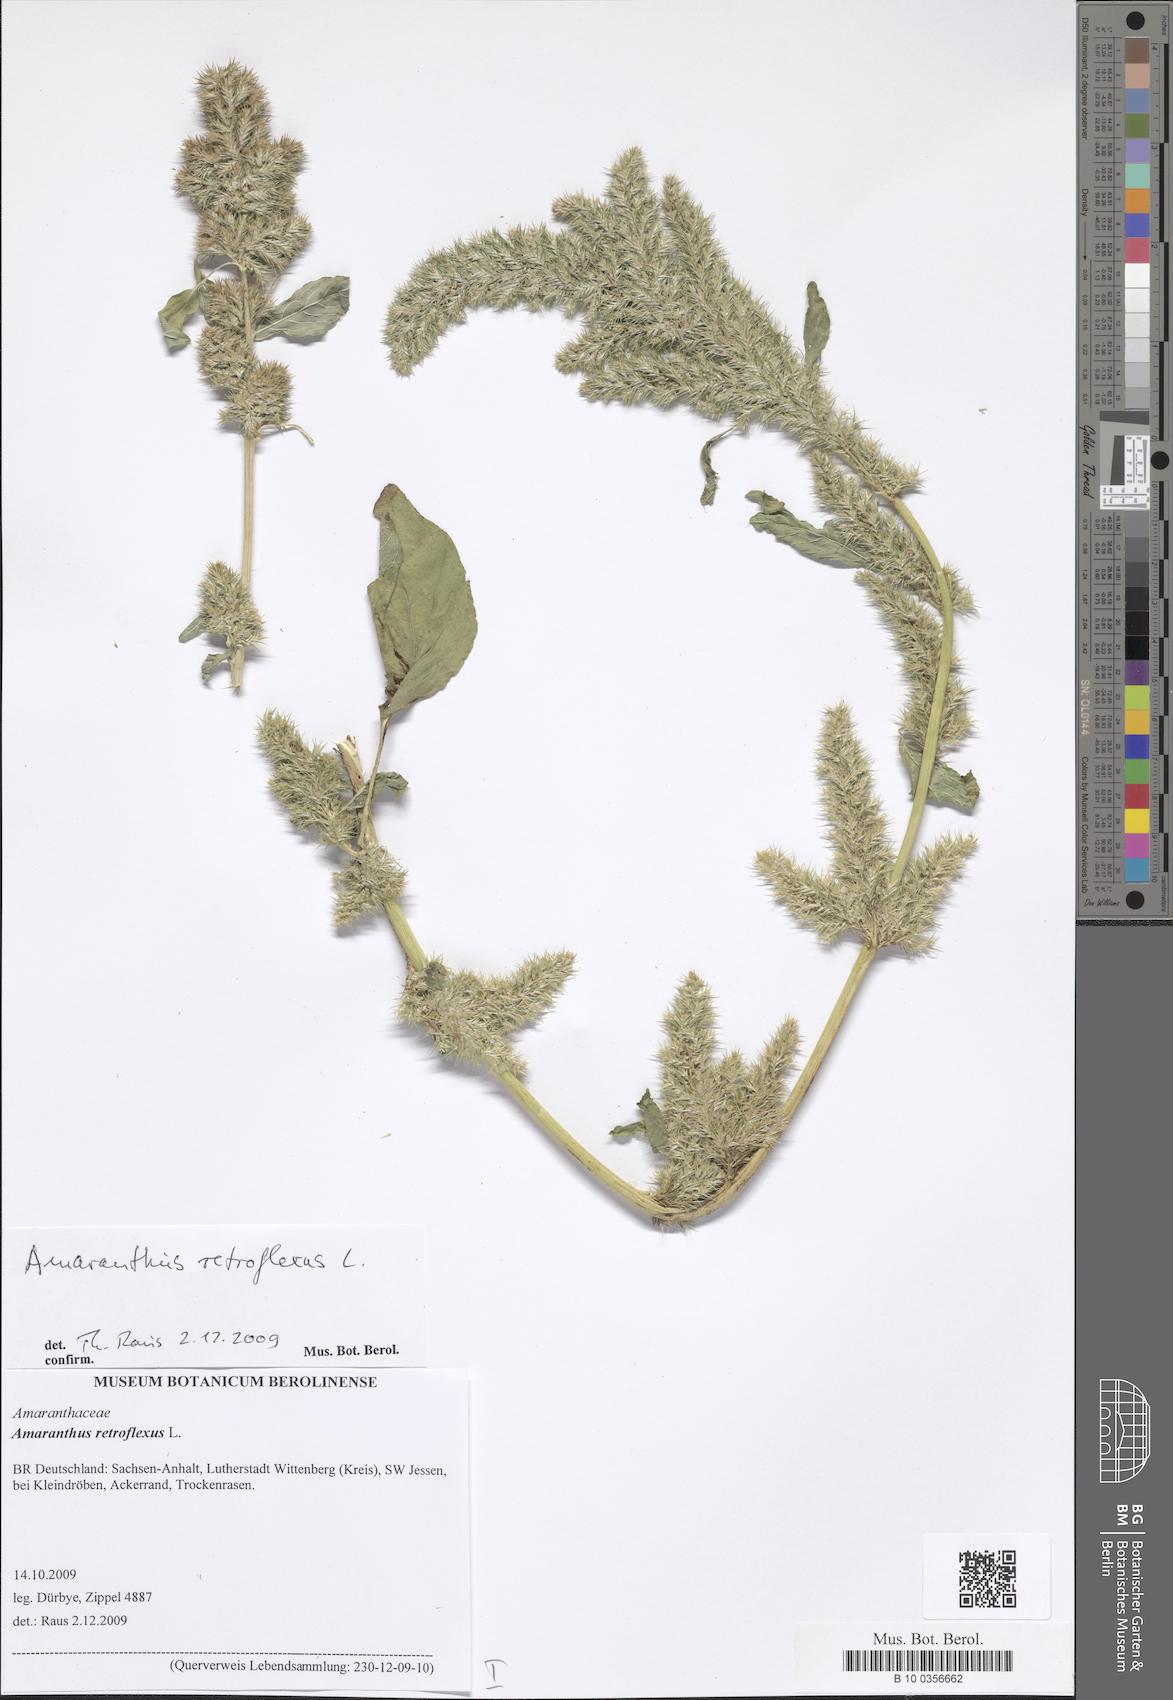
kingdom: Plantae
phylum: Tracheophyta
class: Magnoliopsida
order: Caryophyllales
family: Amaranthaceae
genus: Amaranthus
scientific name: Amaranthus retroflexus
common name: Redroot amaranth
